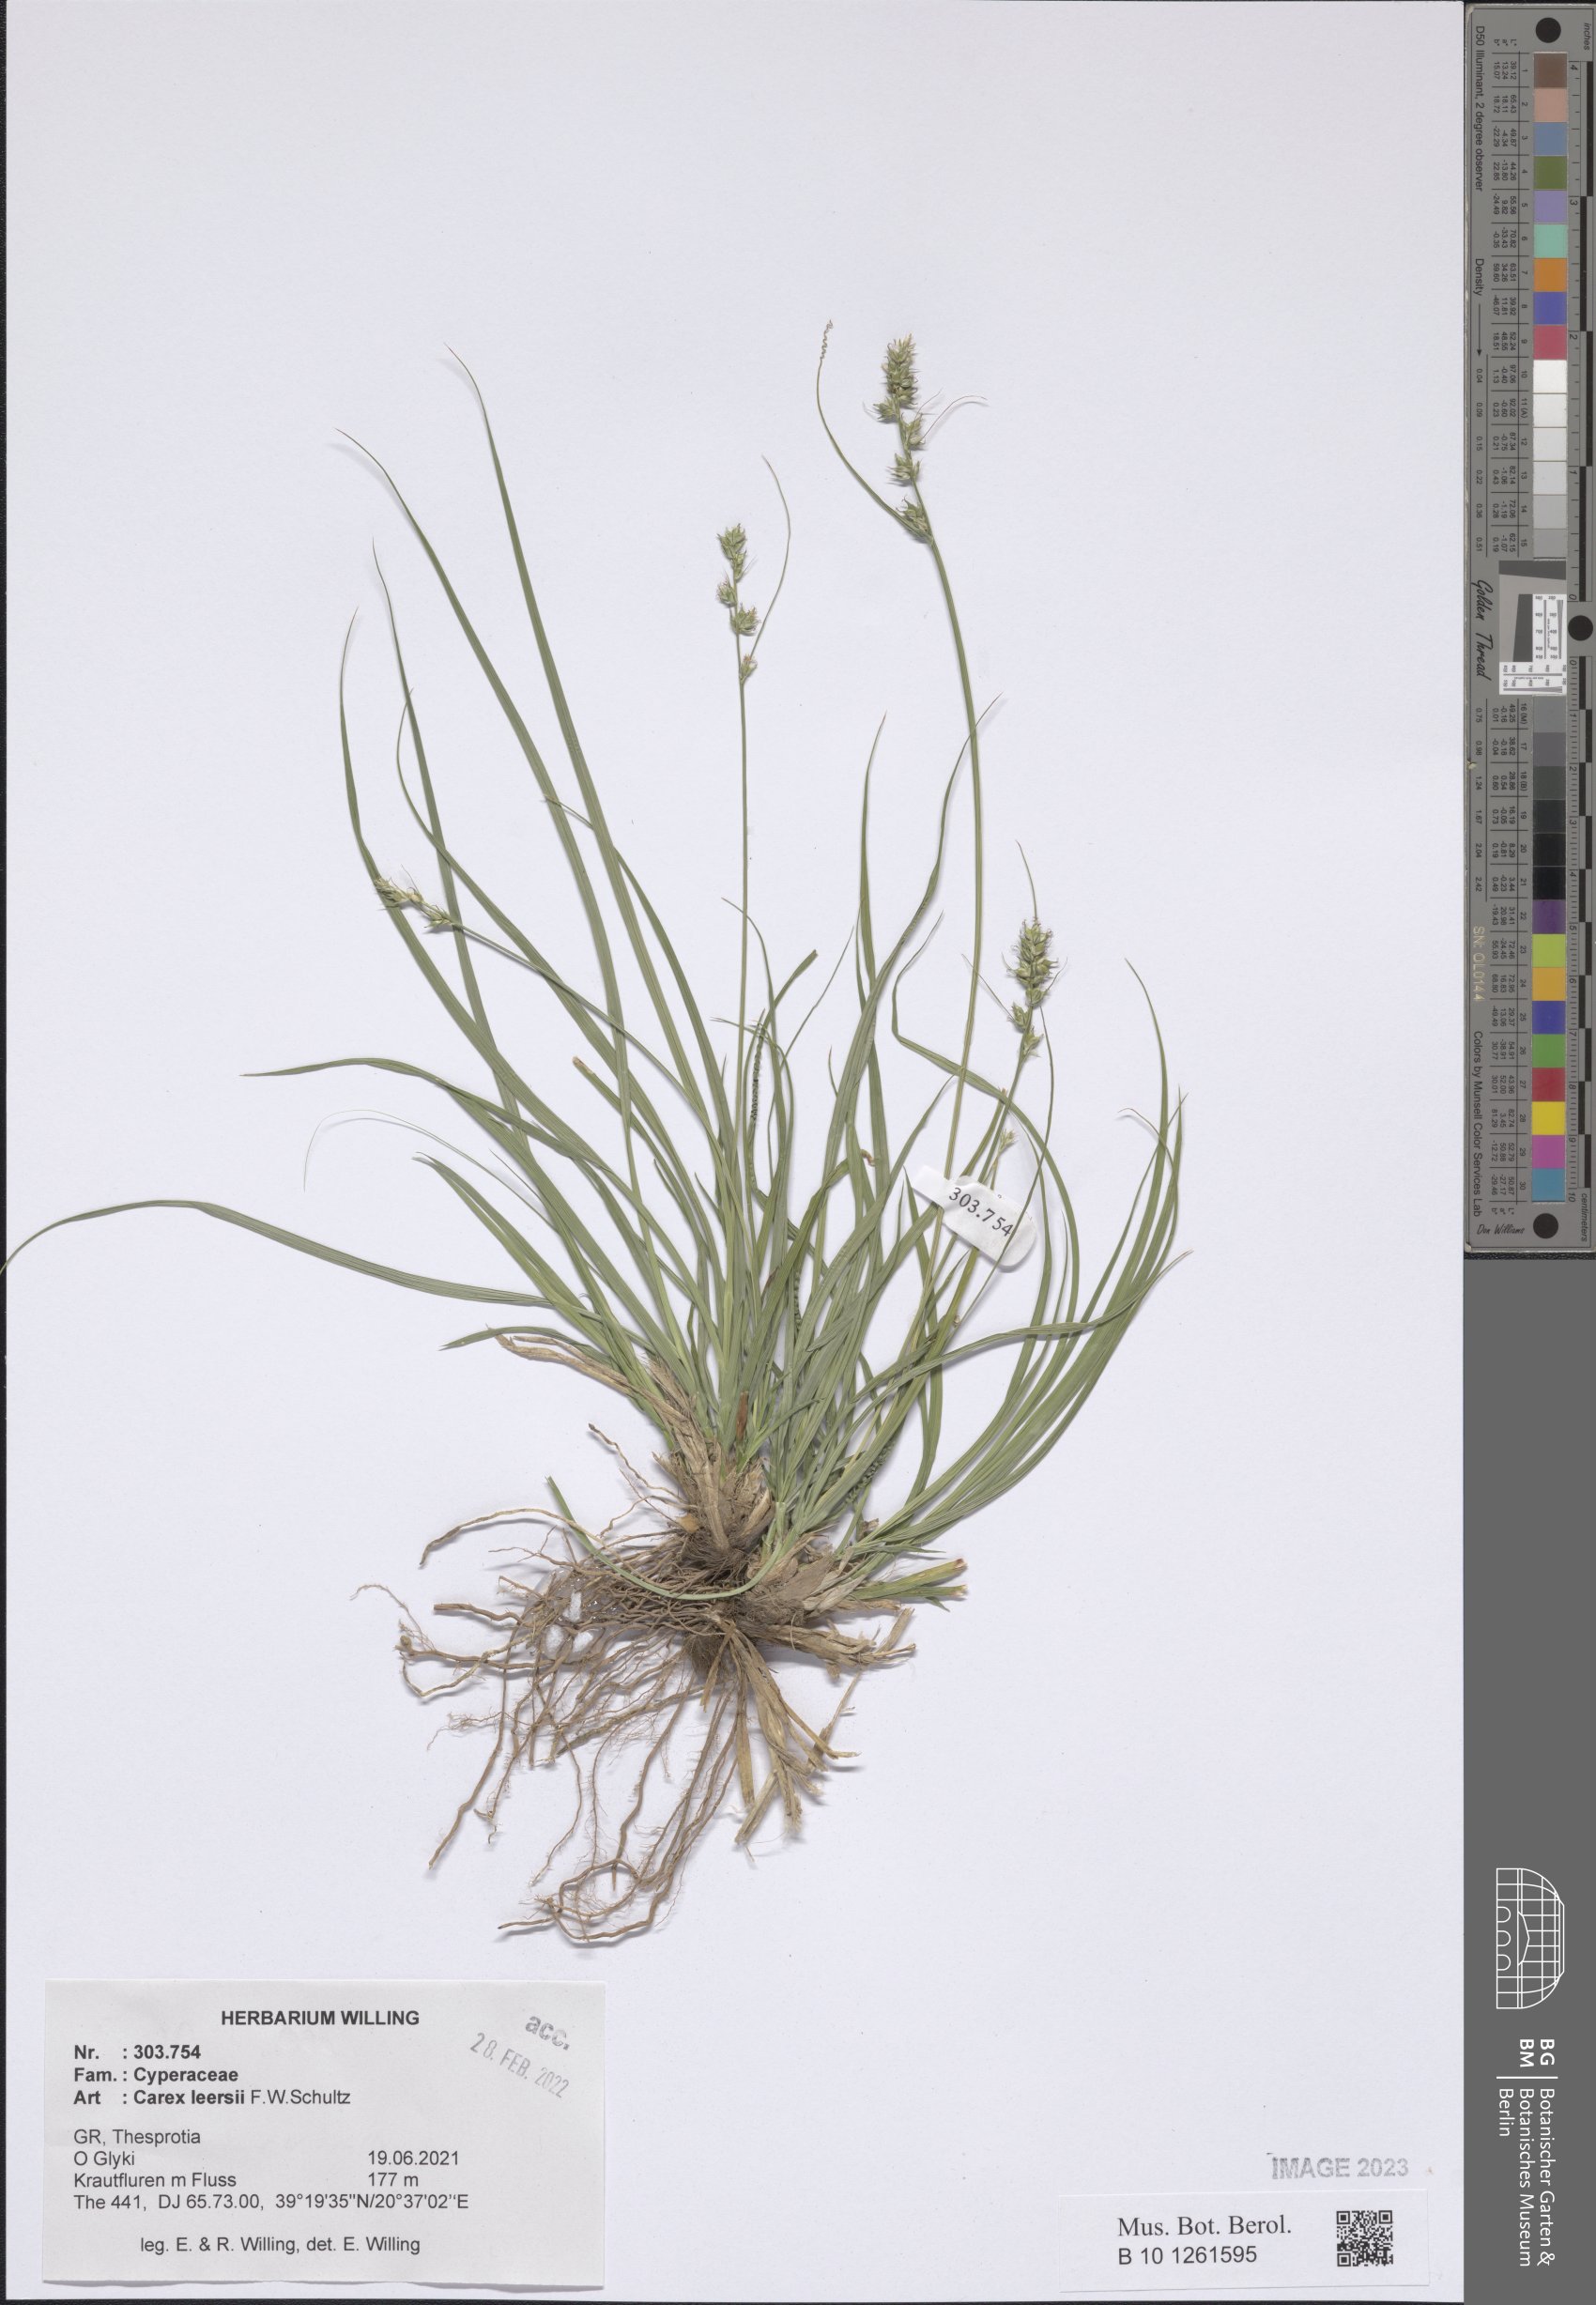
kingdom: Plantae
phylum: Tracheophyta
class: Liliopsida
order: Poales
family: Cyperaceae
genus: Carex
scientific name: Carex leersii
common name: Leers' sedge
